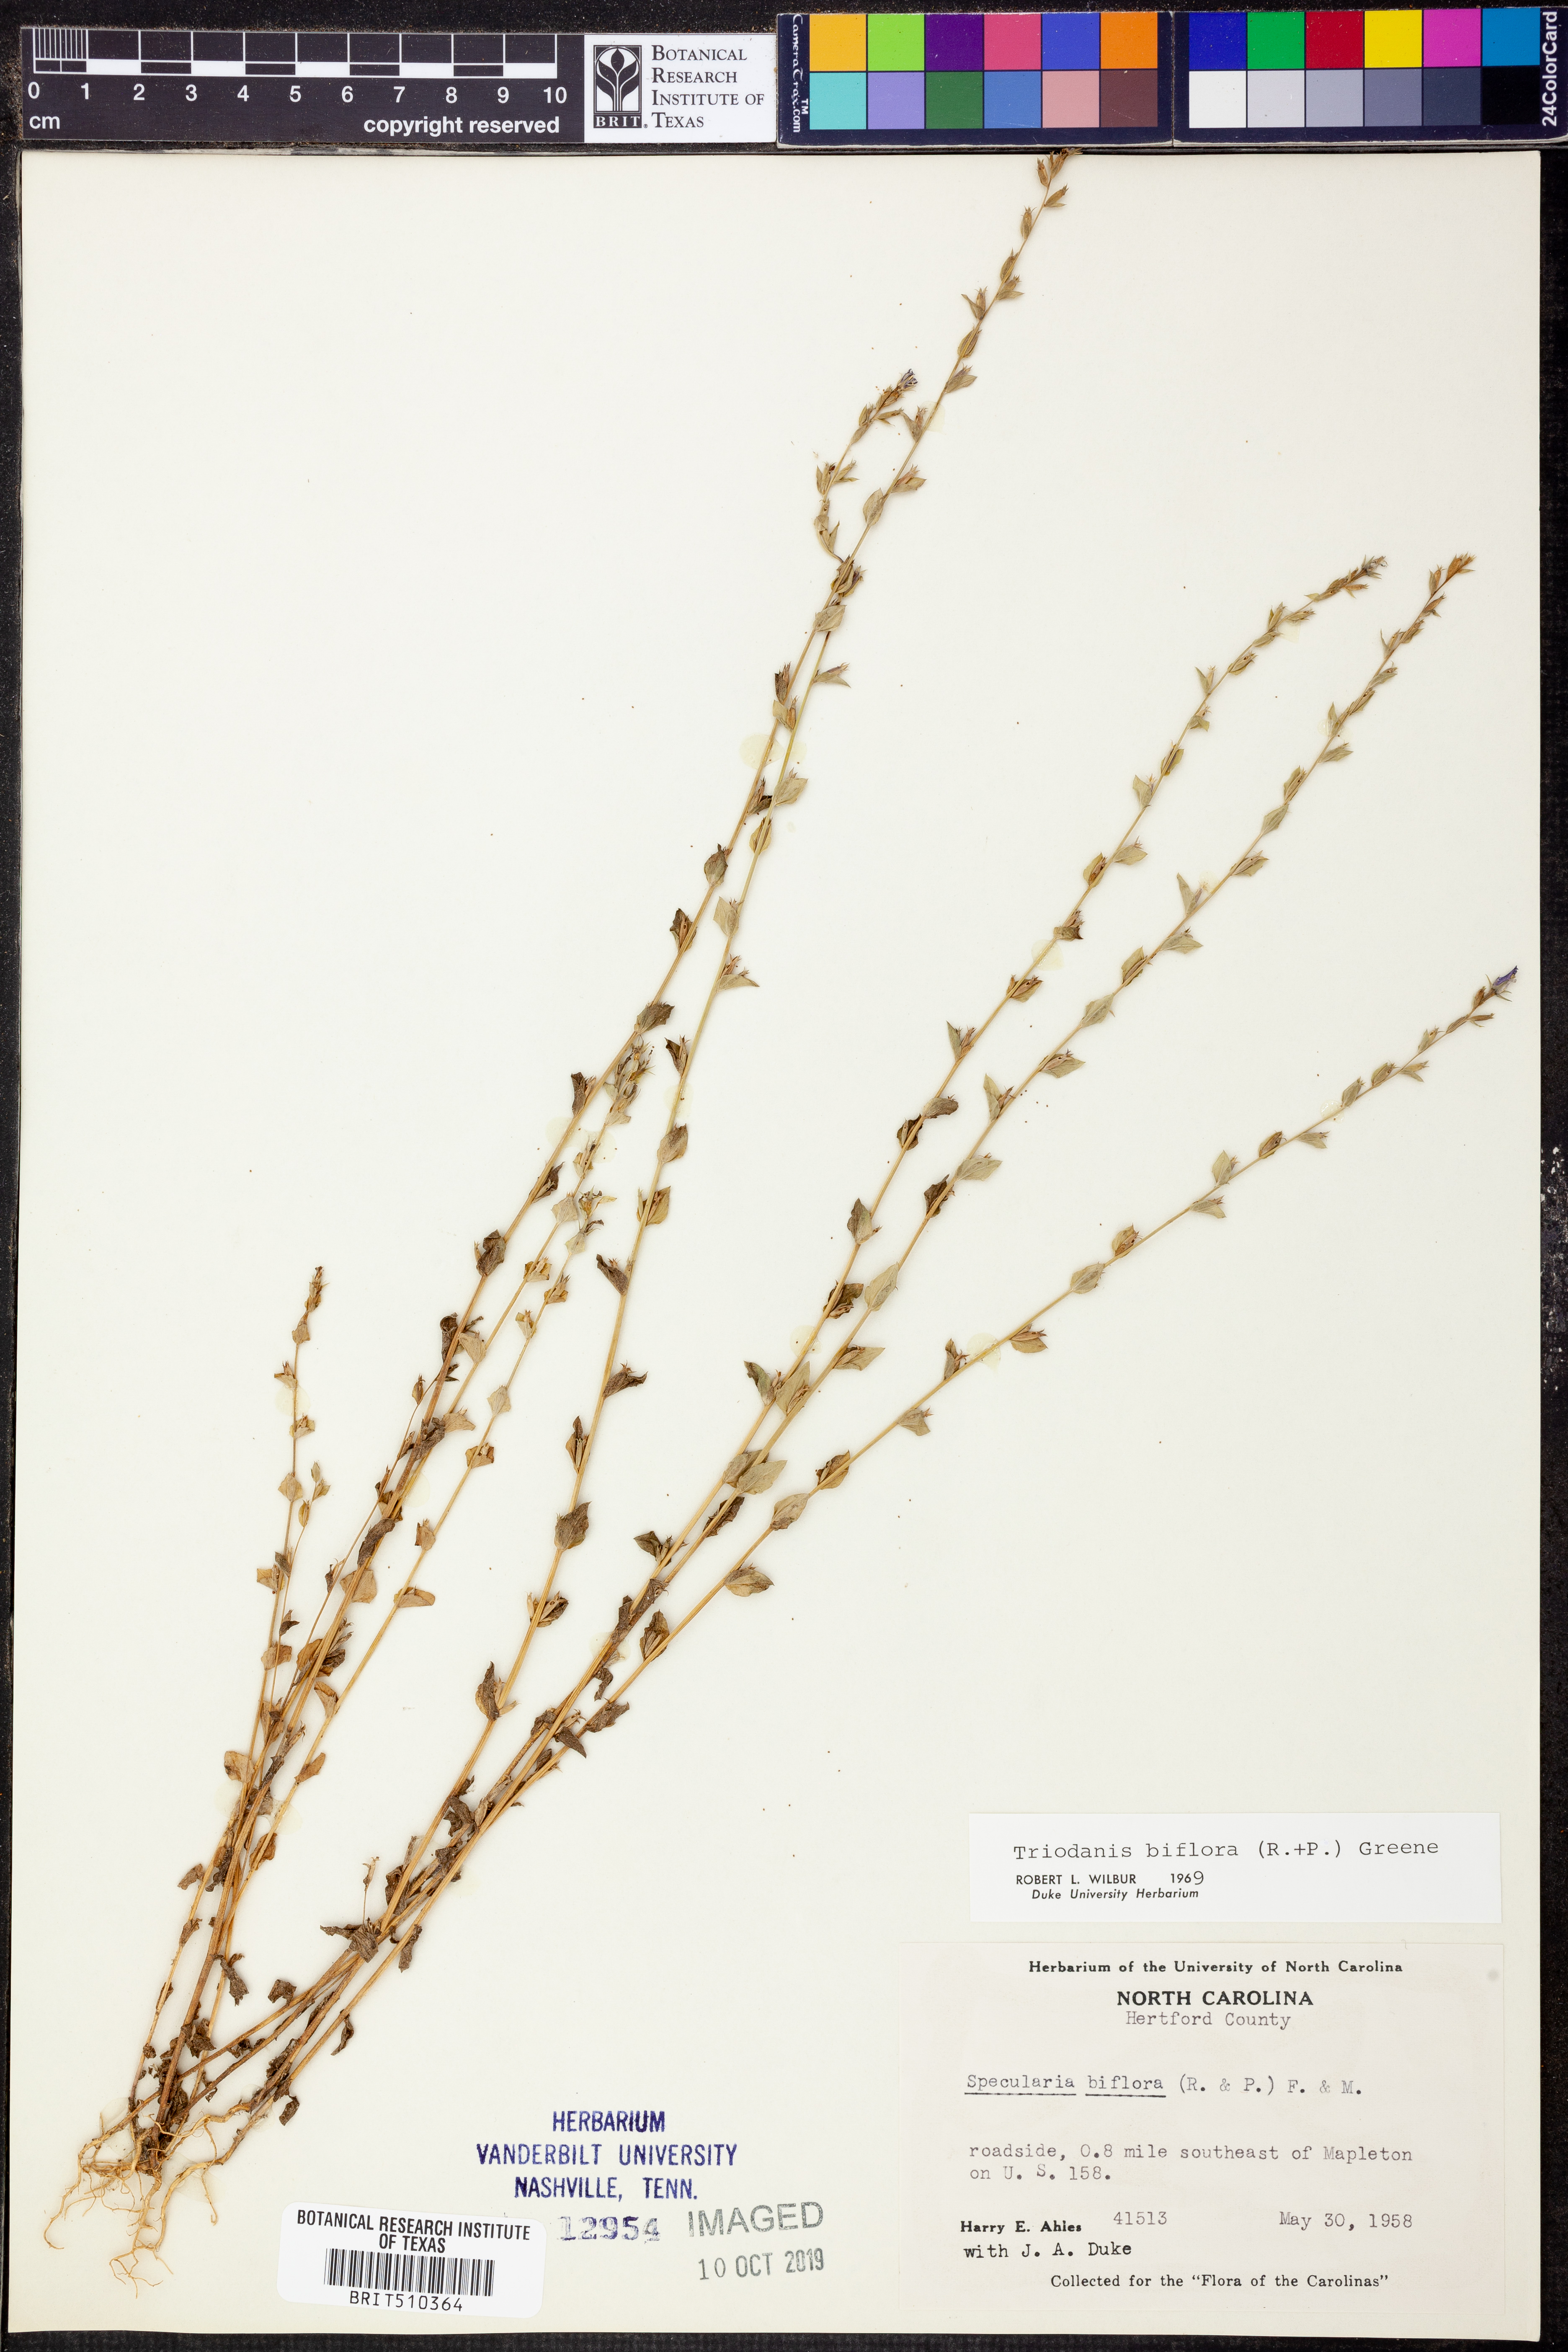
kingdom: Plantae
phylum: Tracheophyta
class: Magnoliopsida
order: Asterales
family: Campanulaceae
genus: Triodanis
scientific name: Triodanis perfoliata
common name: Clasping venus' looking-glass
